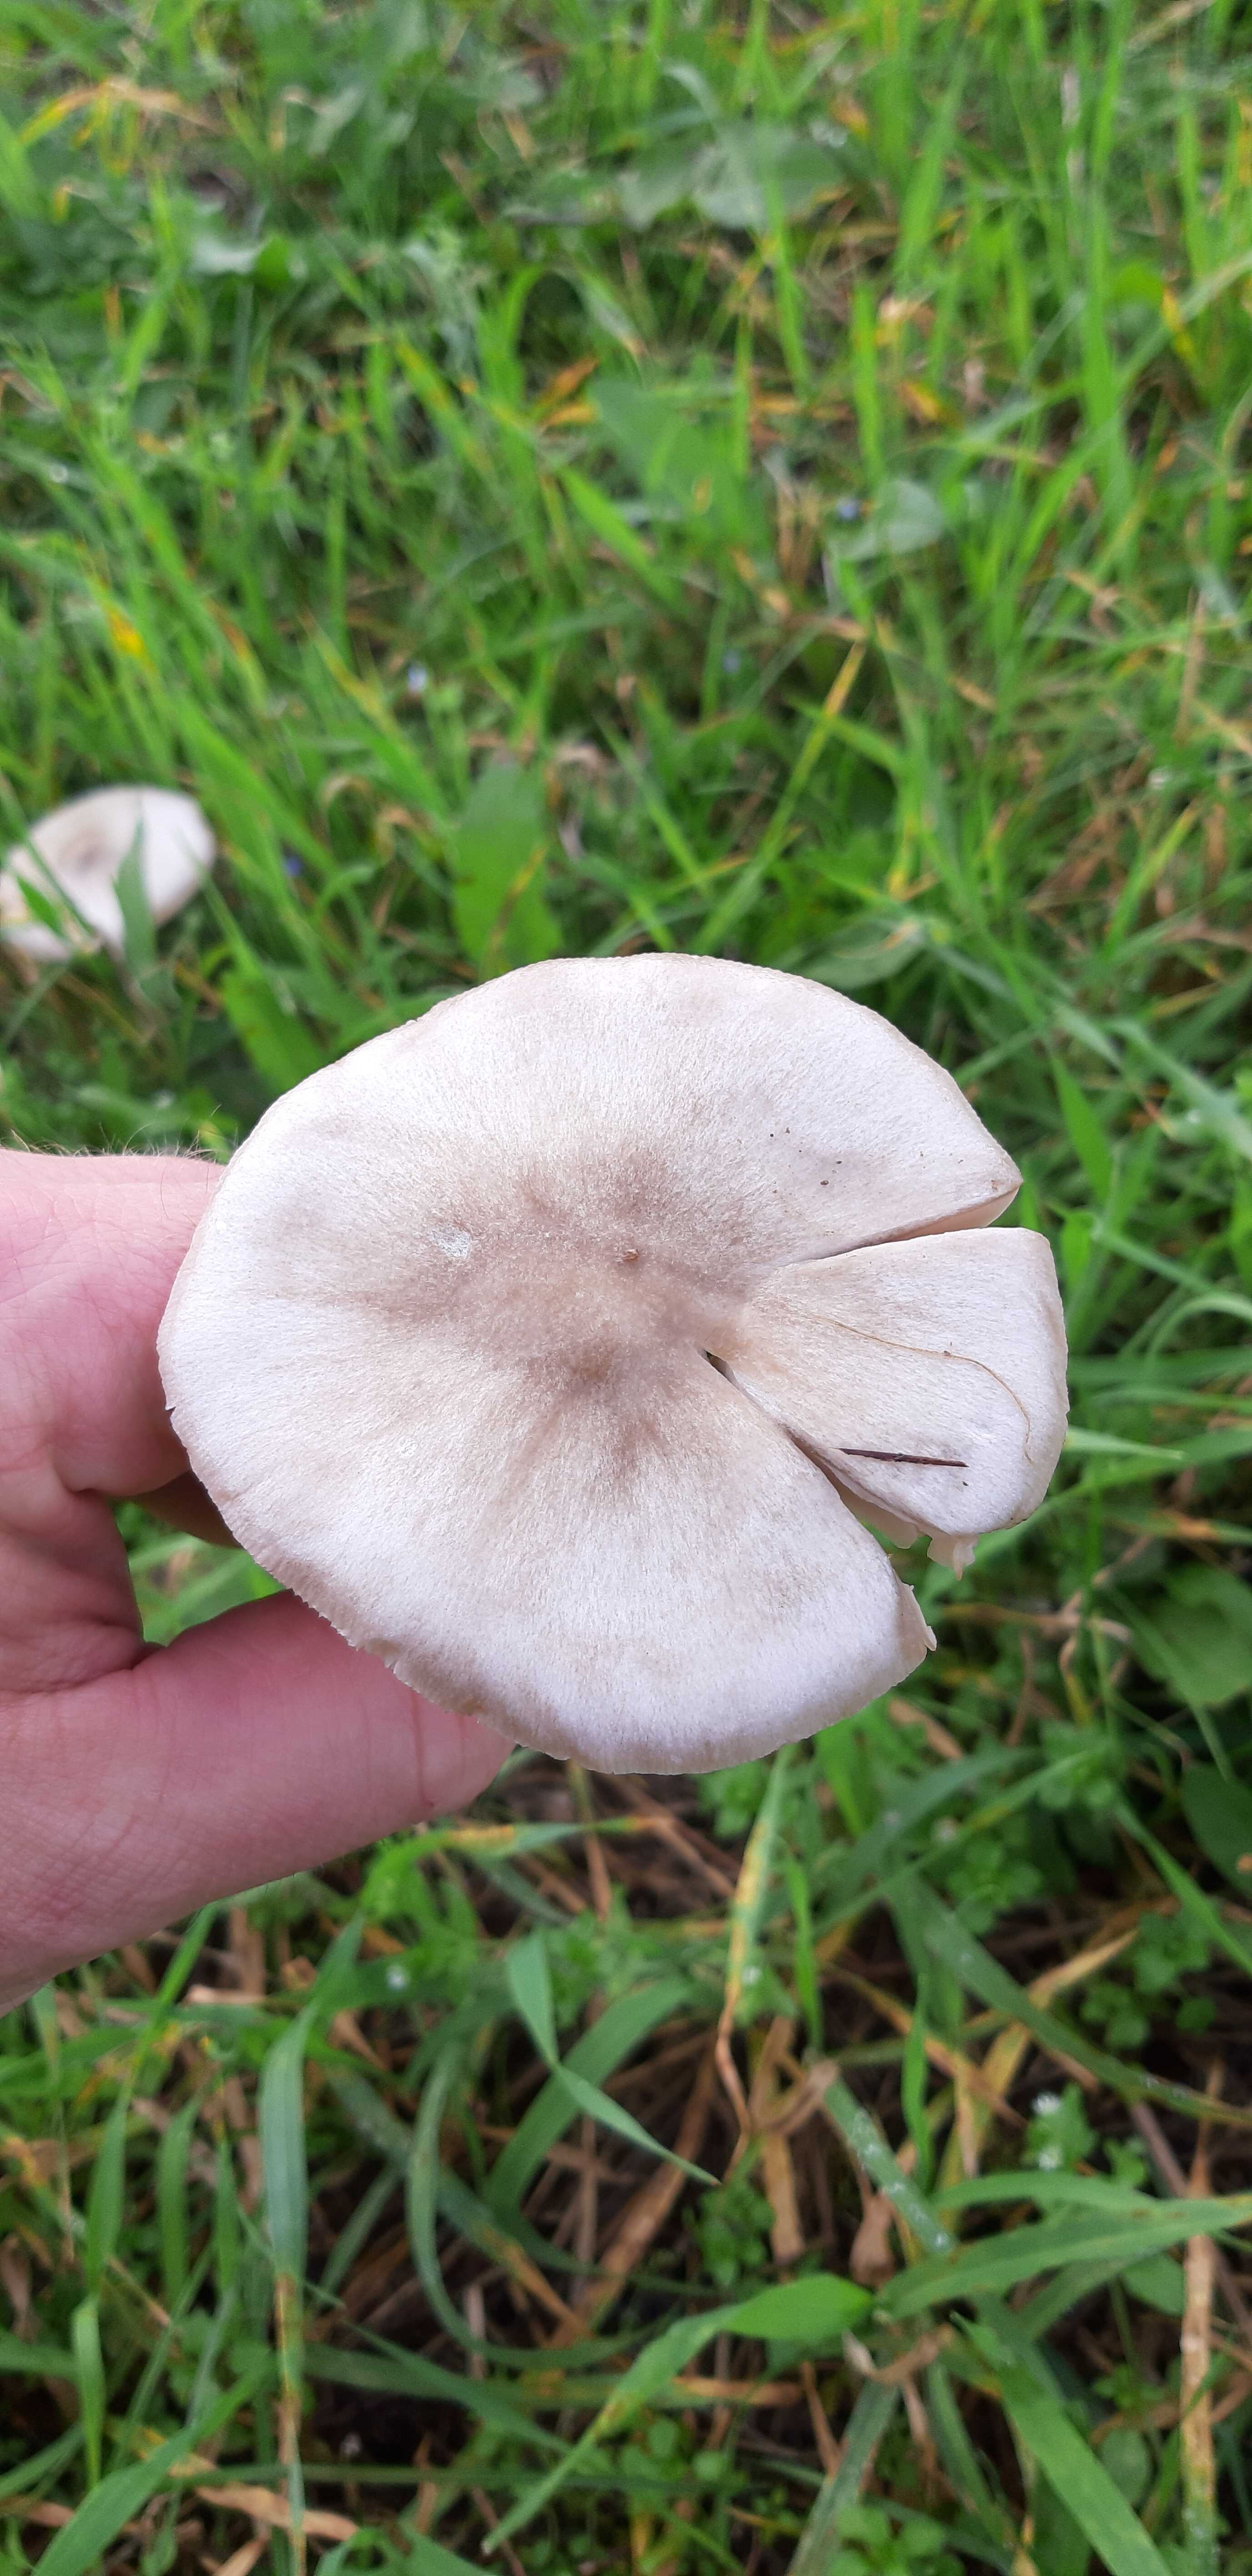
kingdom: Fungi
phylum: Basidiomycota
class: Agaricomycetes
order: Agaricales
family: Pluteaceae
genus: Volvopluteus
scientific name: Volvopluteus gloiocephalus
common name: høj posesvamp
